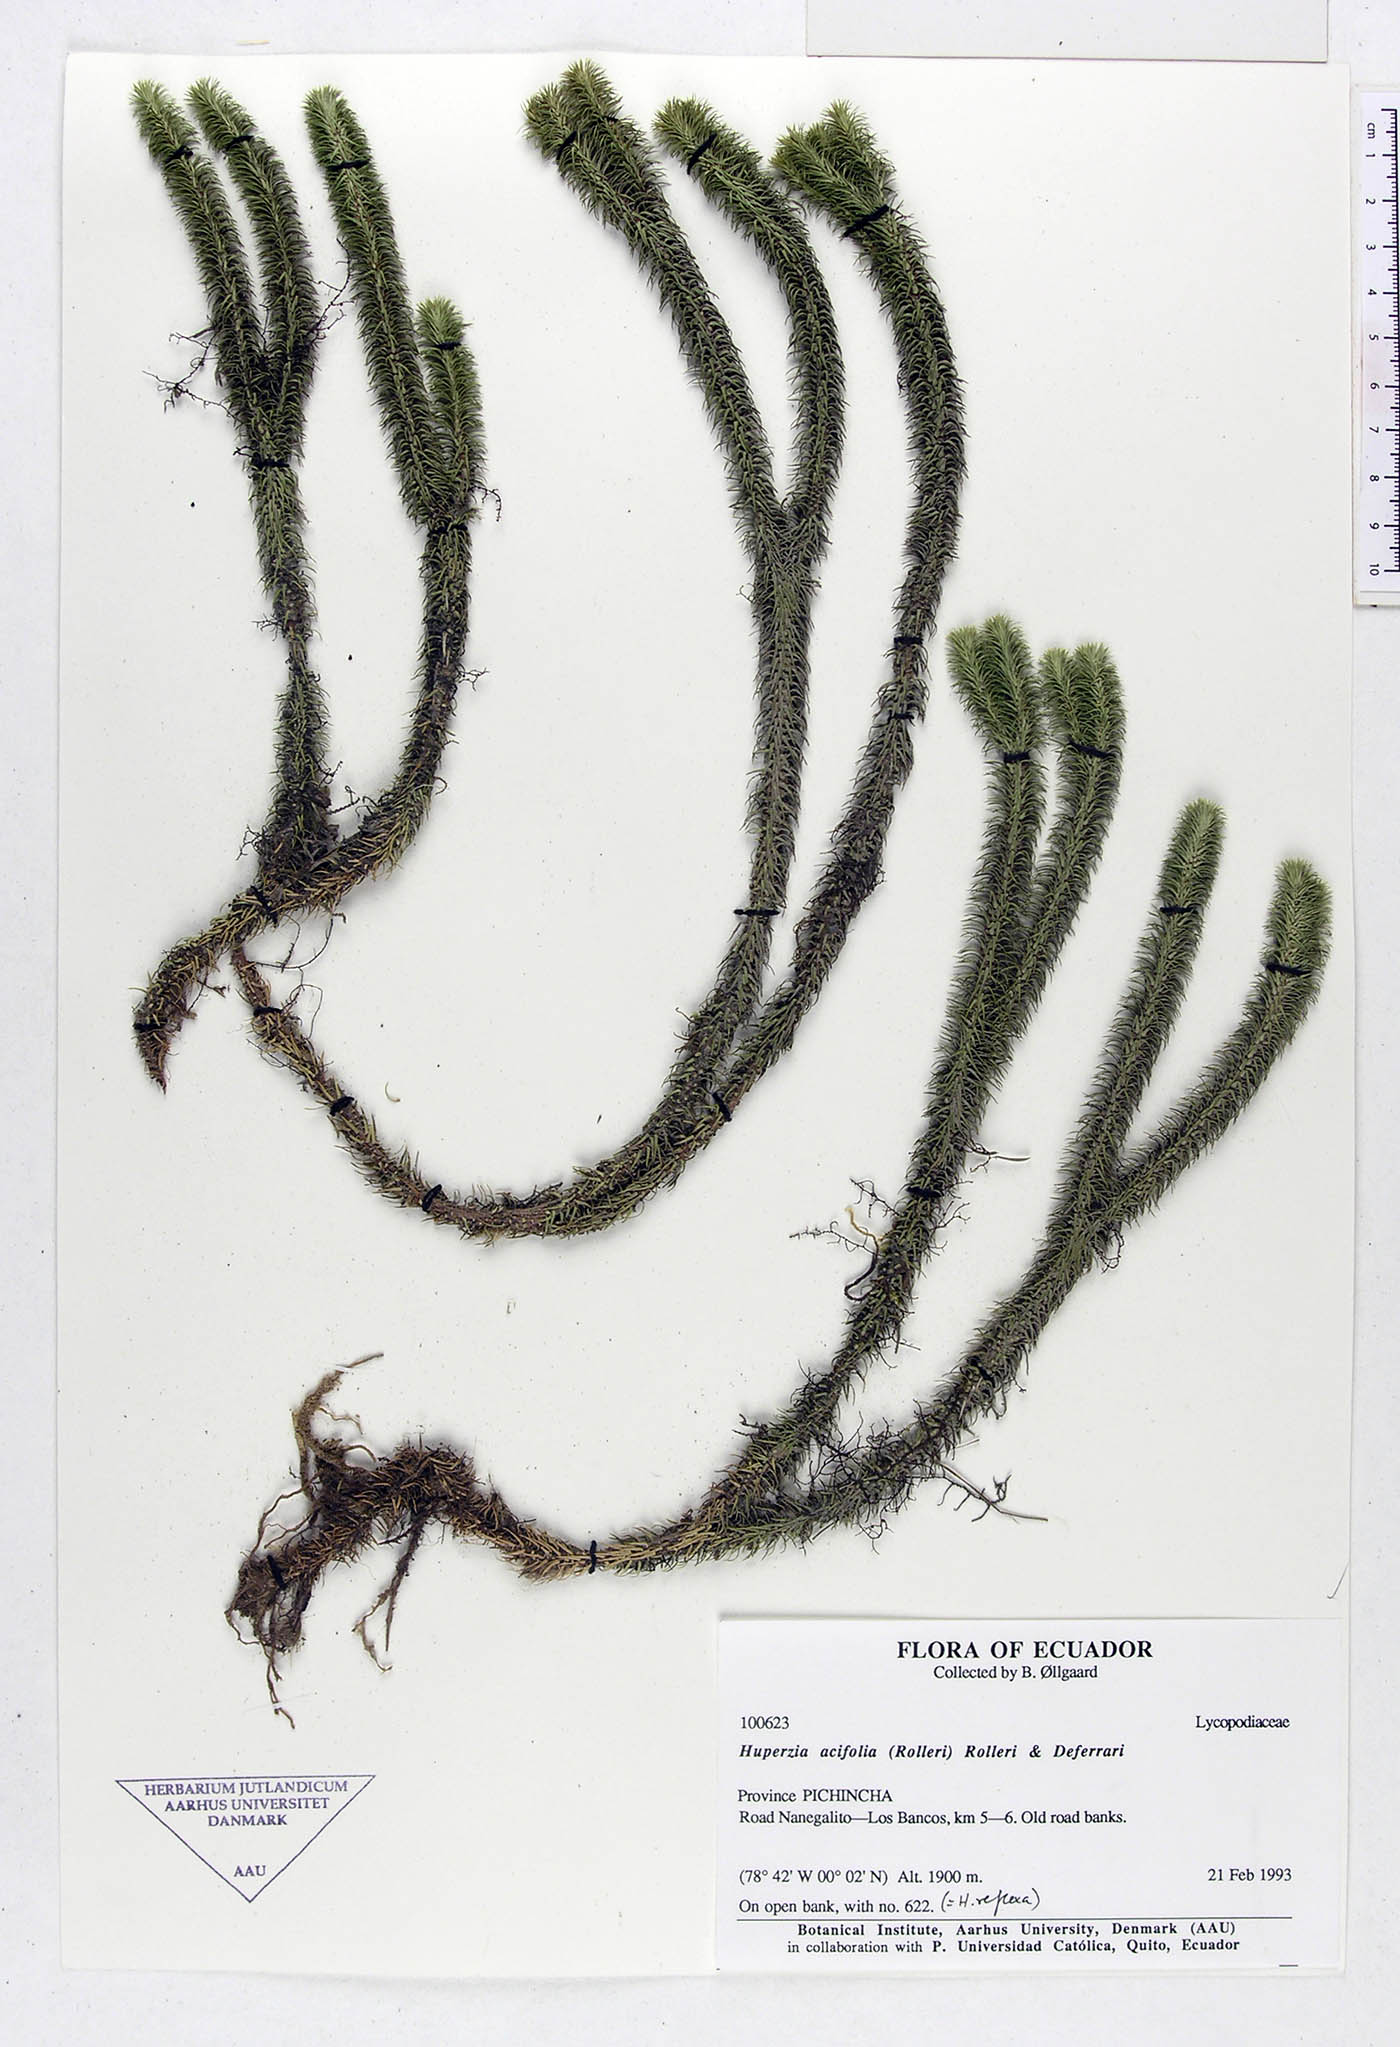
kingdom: Plantae
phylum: Tracheophyta
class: Lycopodiopsida
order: Lycopodiales
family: Lycopodiaceae
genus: Phlegmariurus
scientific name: Phlegmariurus acifolius
